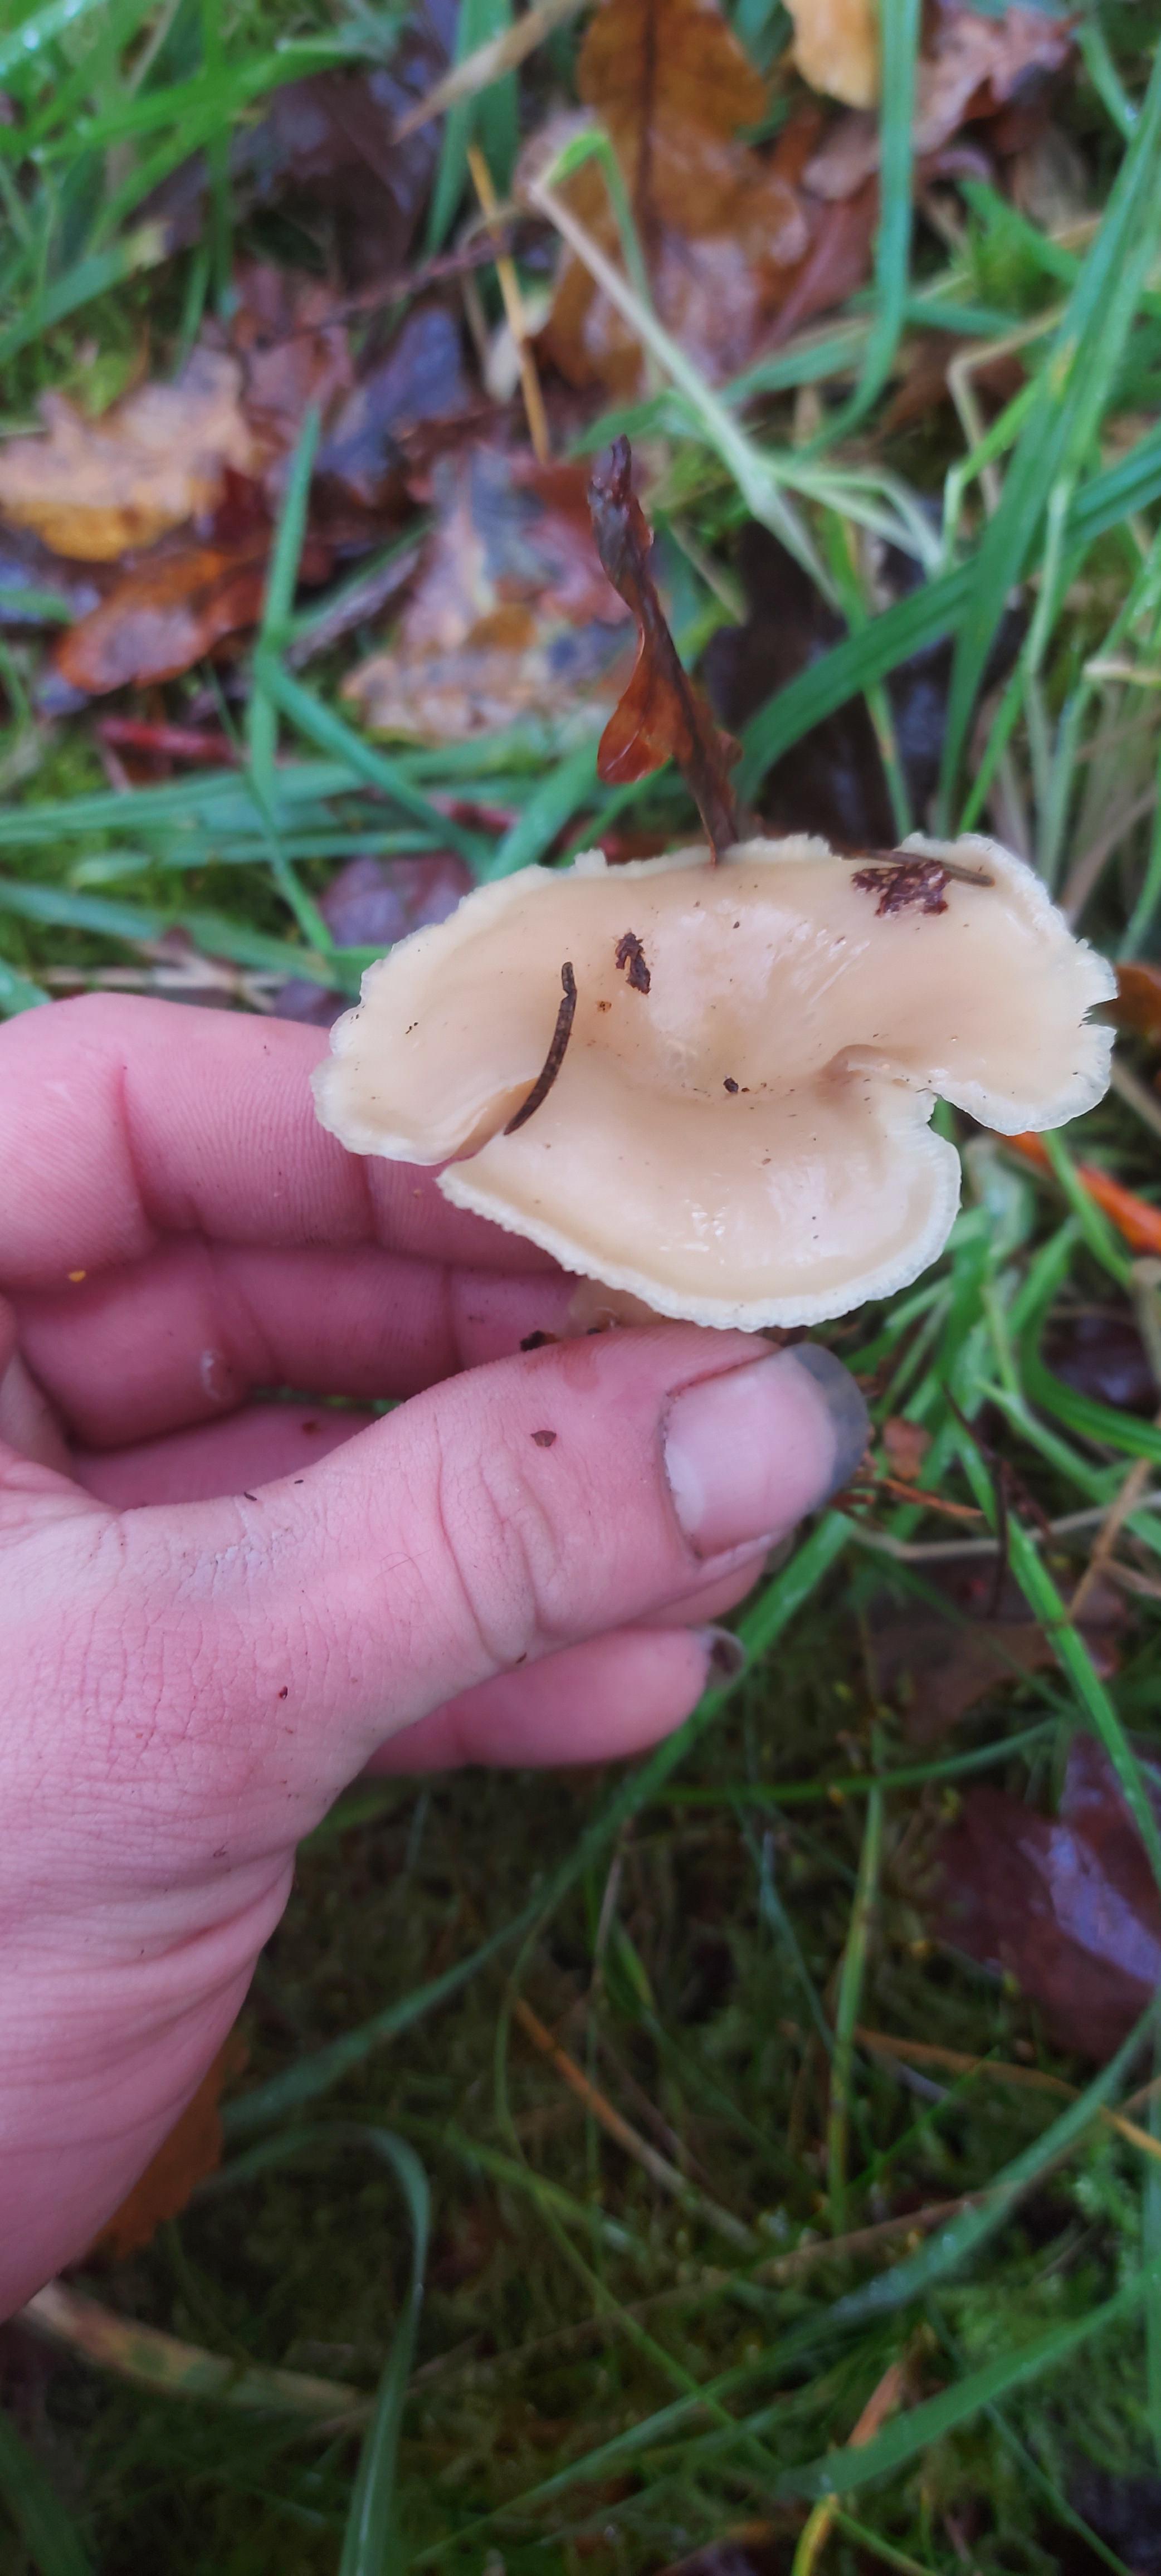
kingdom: Fungi
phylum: Basidiomycota
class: Agaricomycetes
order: Agaricales
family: Tricholomataceae
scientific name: Tricholomataceae
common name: ridderhatfamilien
